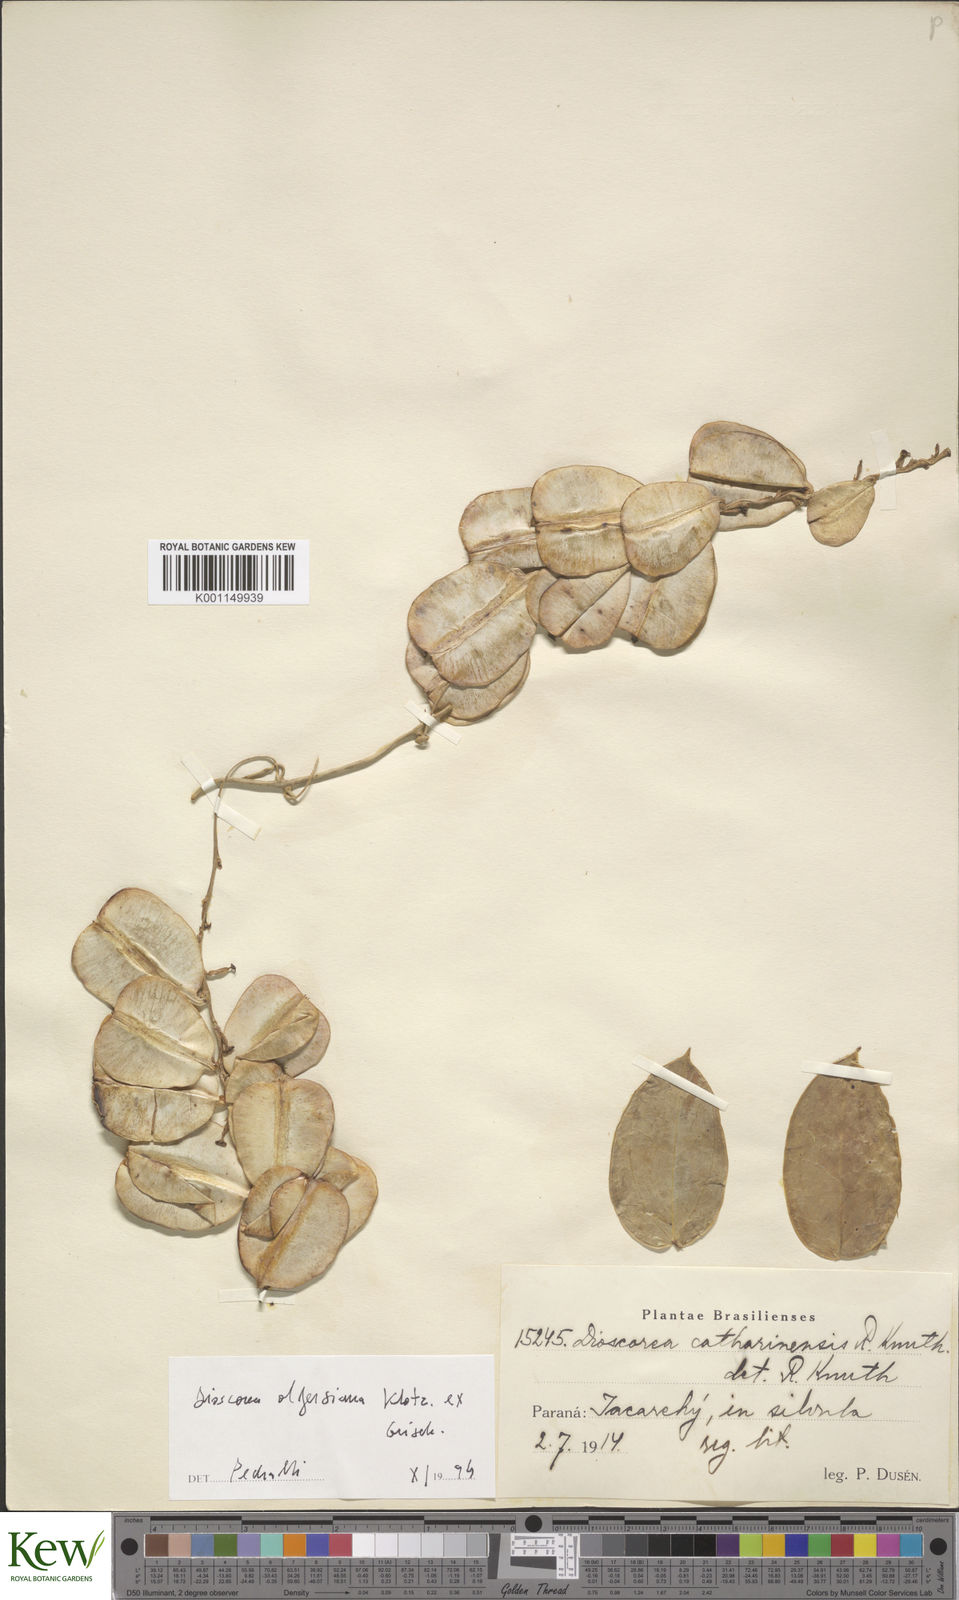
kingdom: Plantae
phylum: Tracheophyta
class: Liliopsida
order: Dioscoreales
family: Dioscoreaceae
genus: Dioscorea
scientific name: Dioscorea olfersiana
